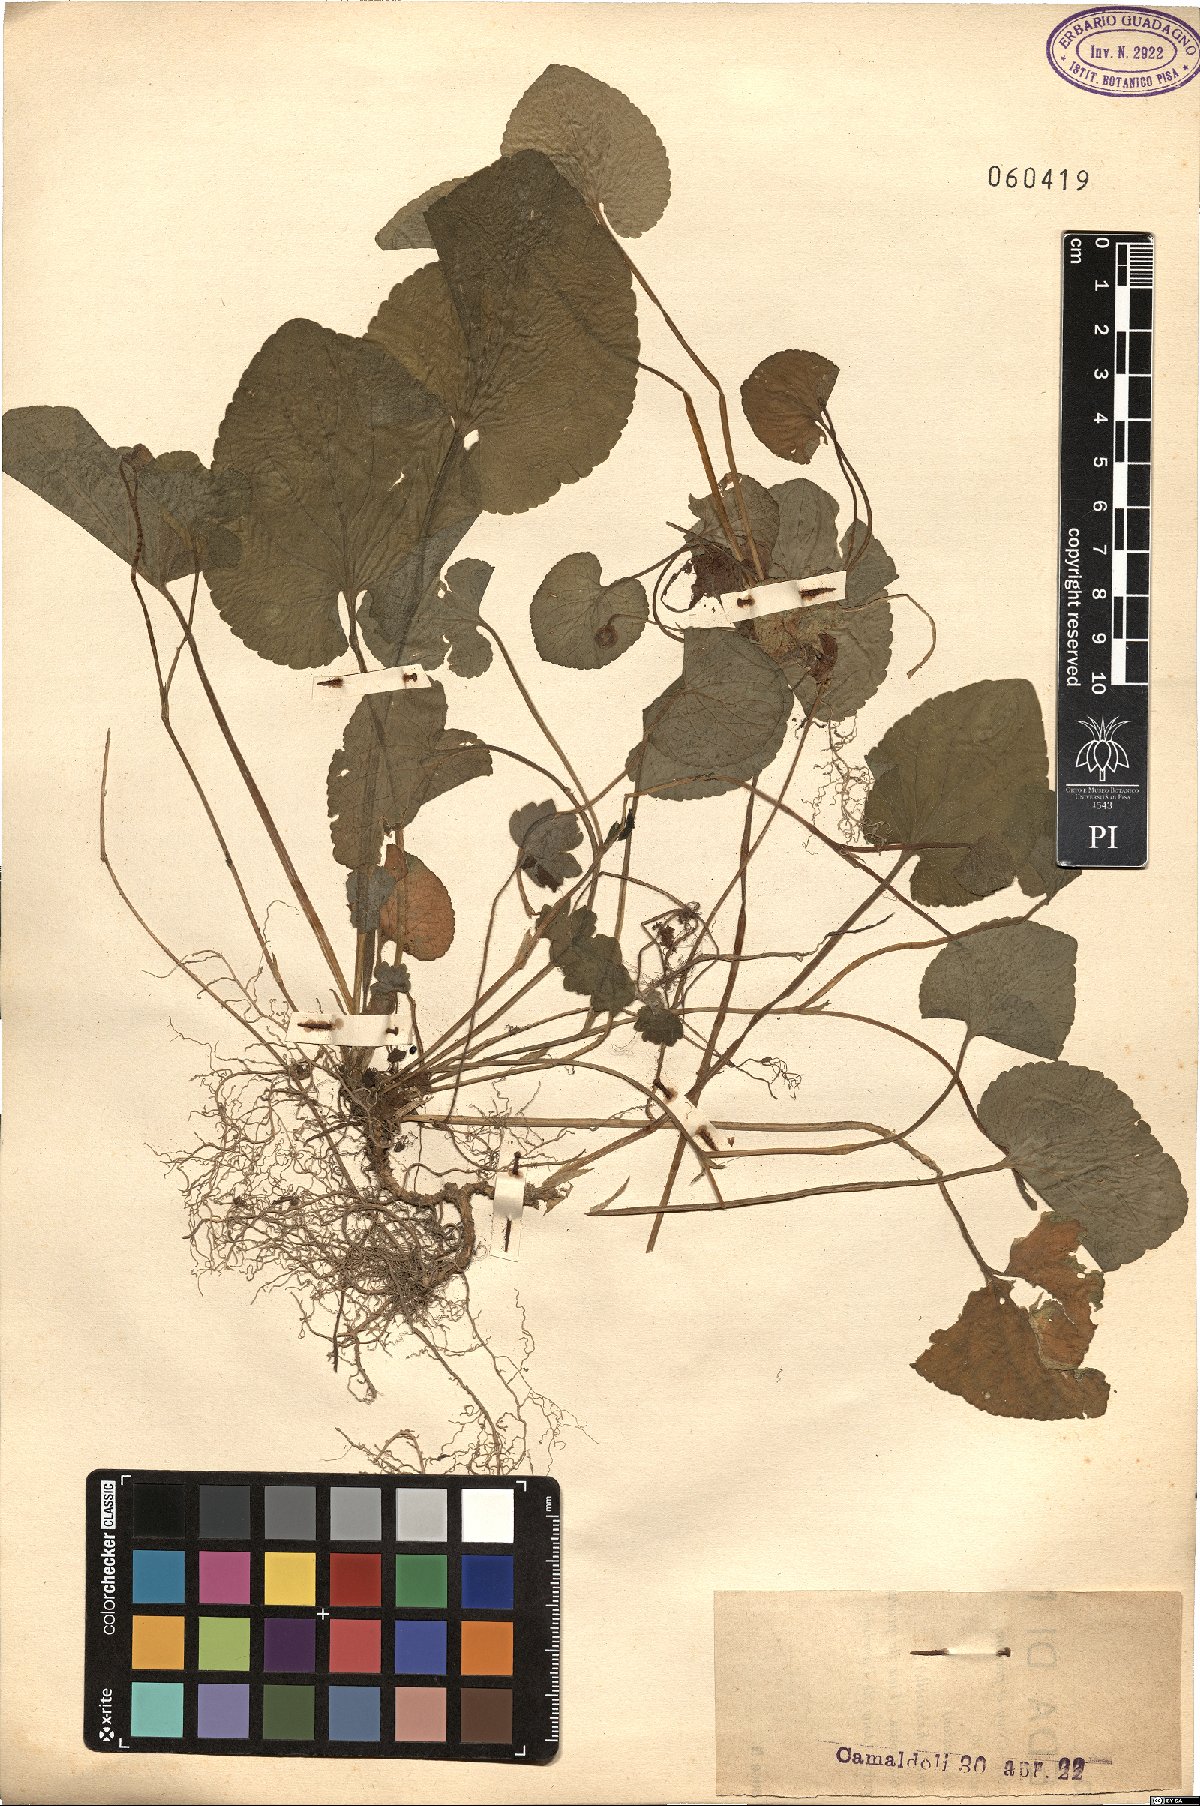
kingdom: Plantae
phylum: Tracheophyta
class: Magnoliopsida
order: Malpighiales
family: Violaceae
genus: Viola
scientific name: Viola
